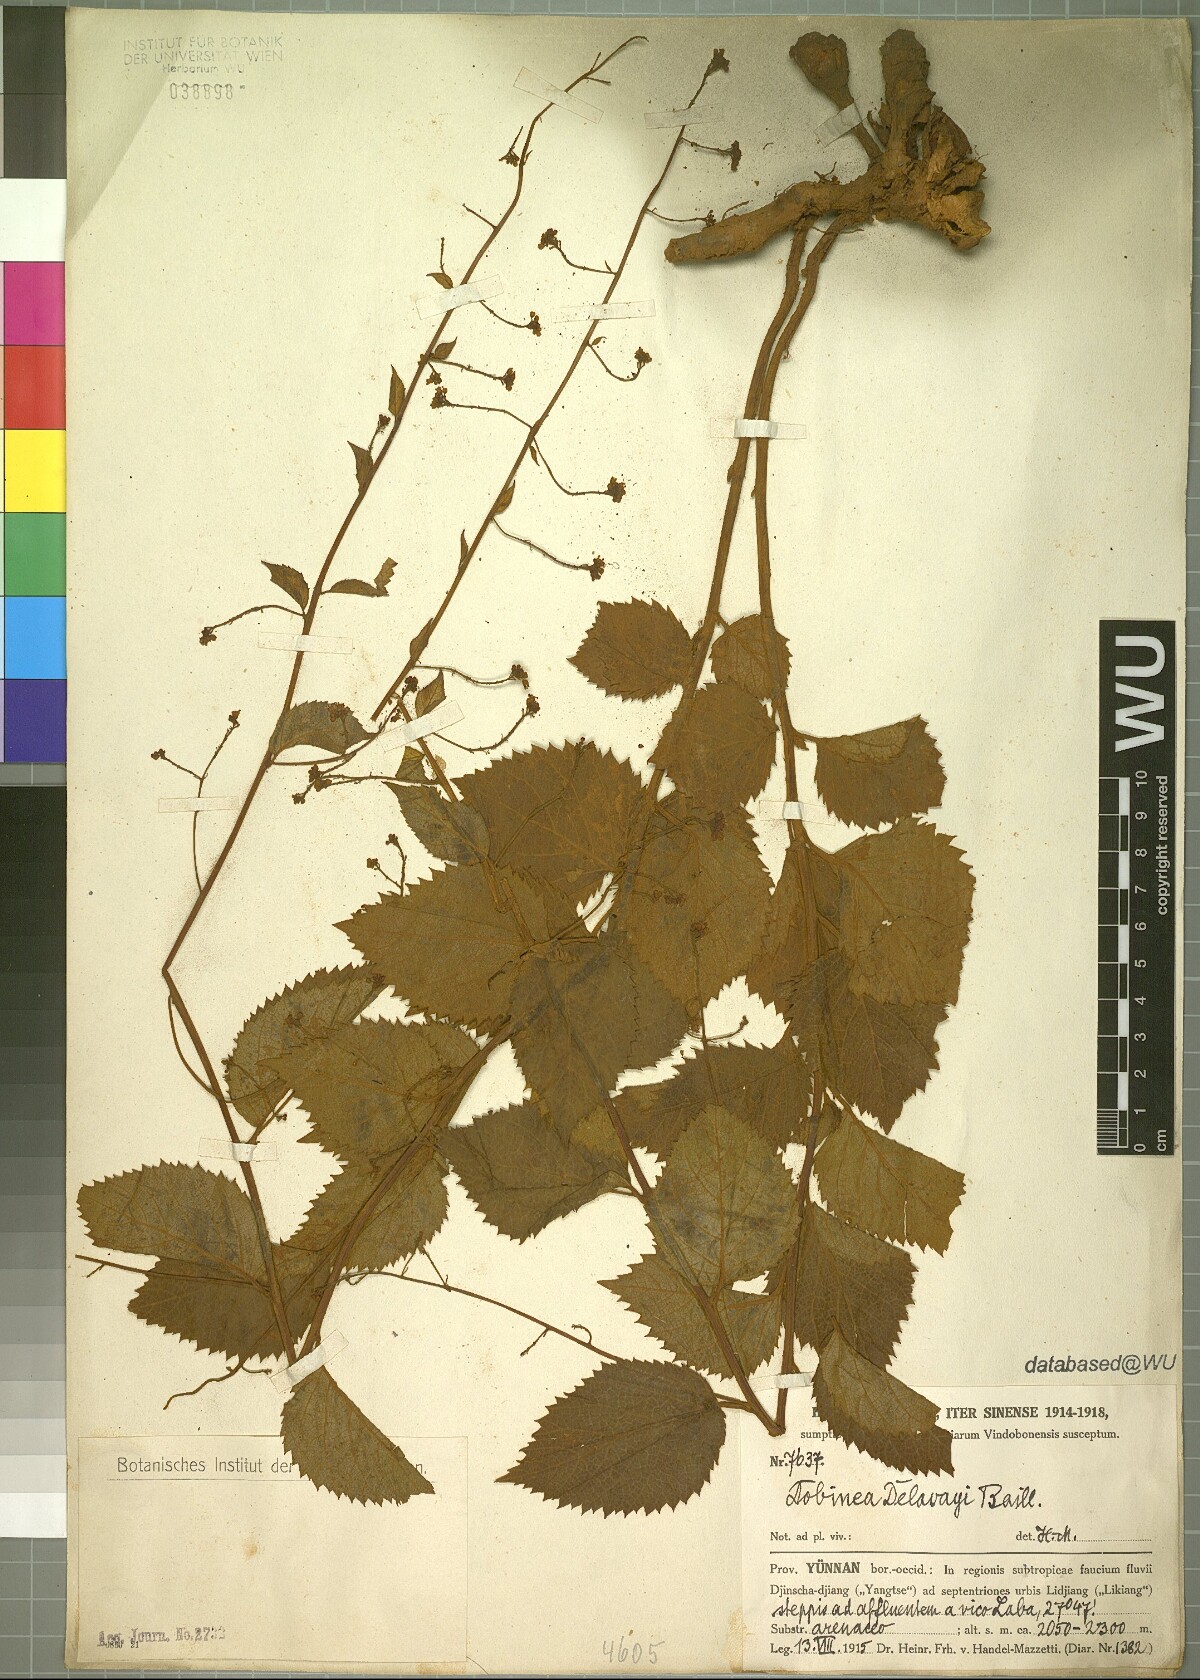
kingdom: Plantae
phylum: Tracheophyta
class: Magnoliopsida
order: Sapindales
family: Anacardiaceae
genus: Dobinea
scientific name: Dobinea delavayi
